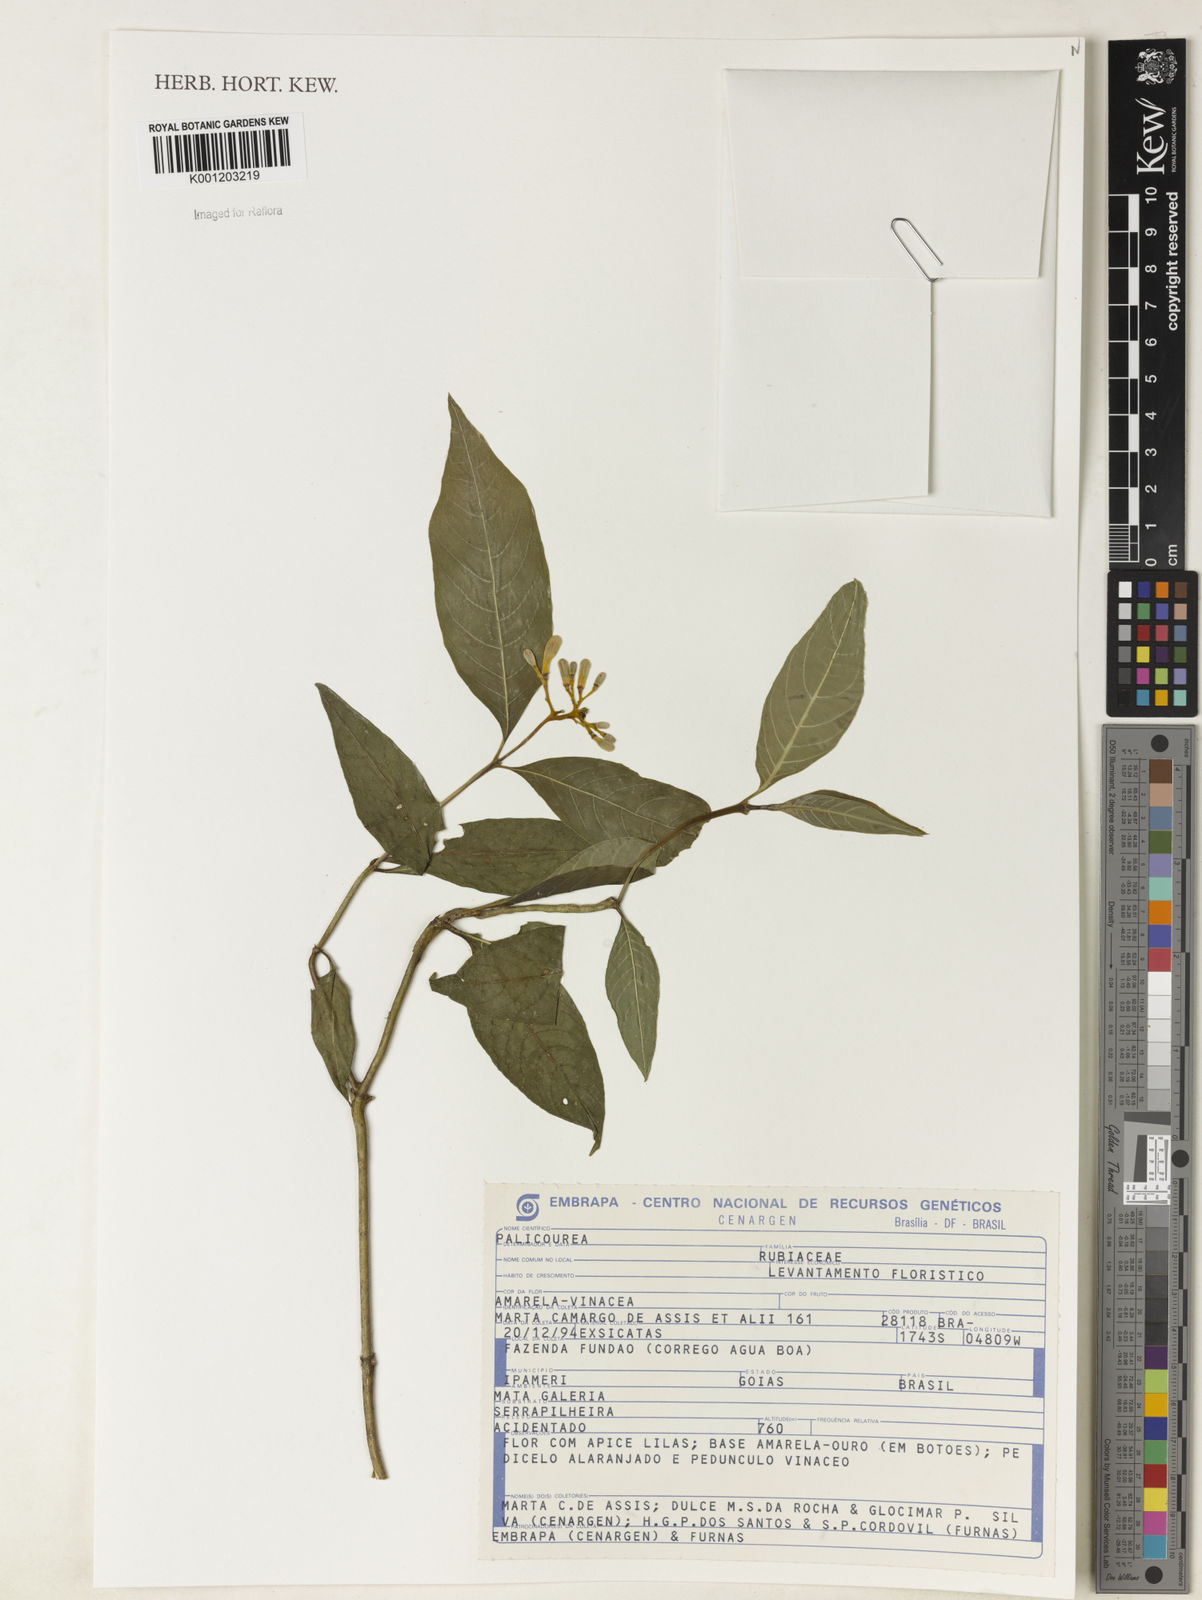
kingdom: Plantae
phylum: Tracheophyta
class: Magnoliopsida
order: Gentianales
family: Rubiaceae
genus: Palicourea
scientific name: Palicourea
